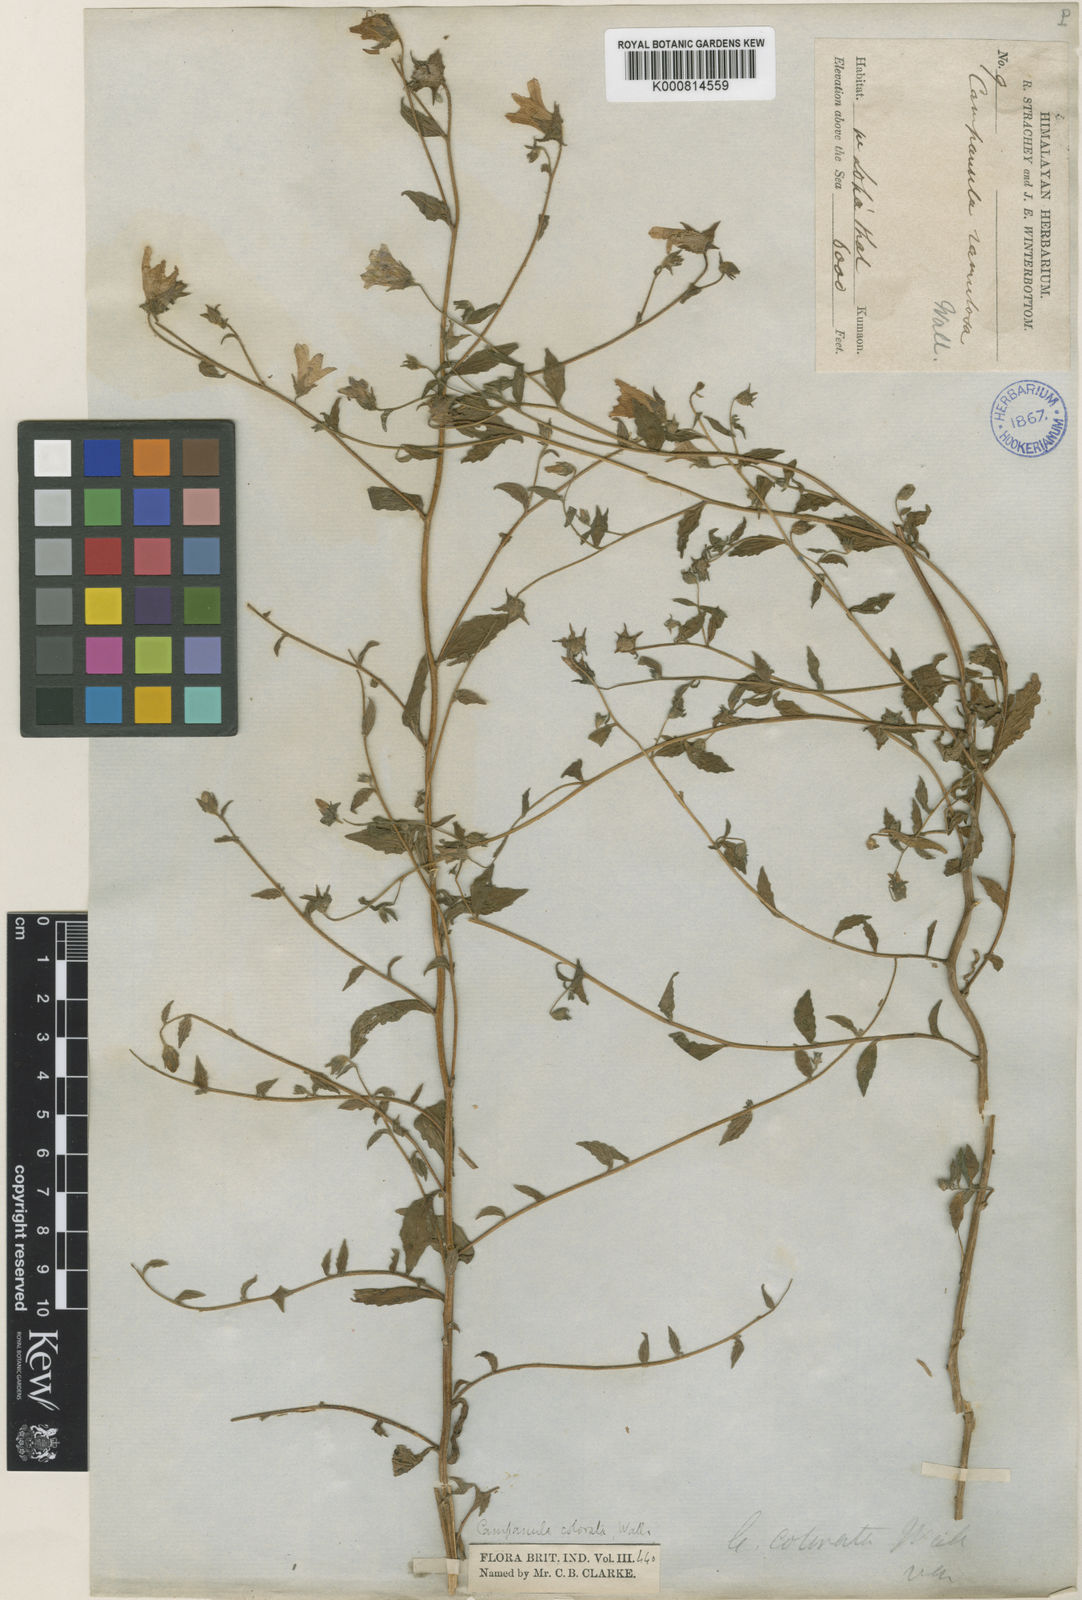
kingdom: Plantae
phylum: Tracheophyta
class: Magnoliopsida
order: Asterales
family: Campanulaceae
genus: Campanula
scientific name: Campanula pallida
